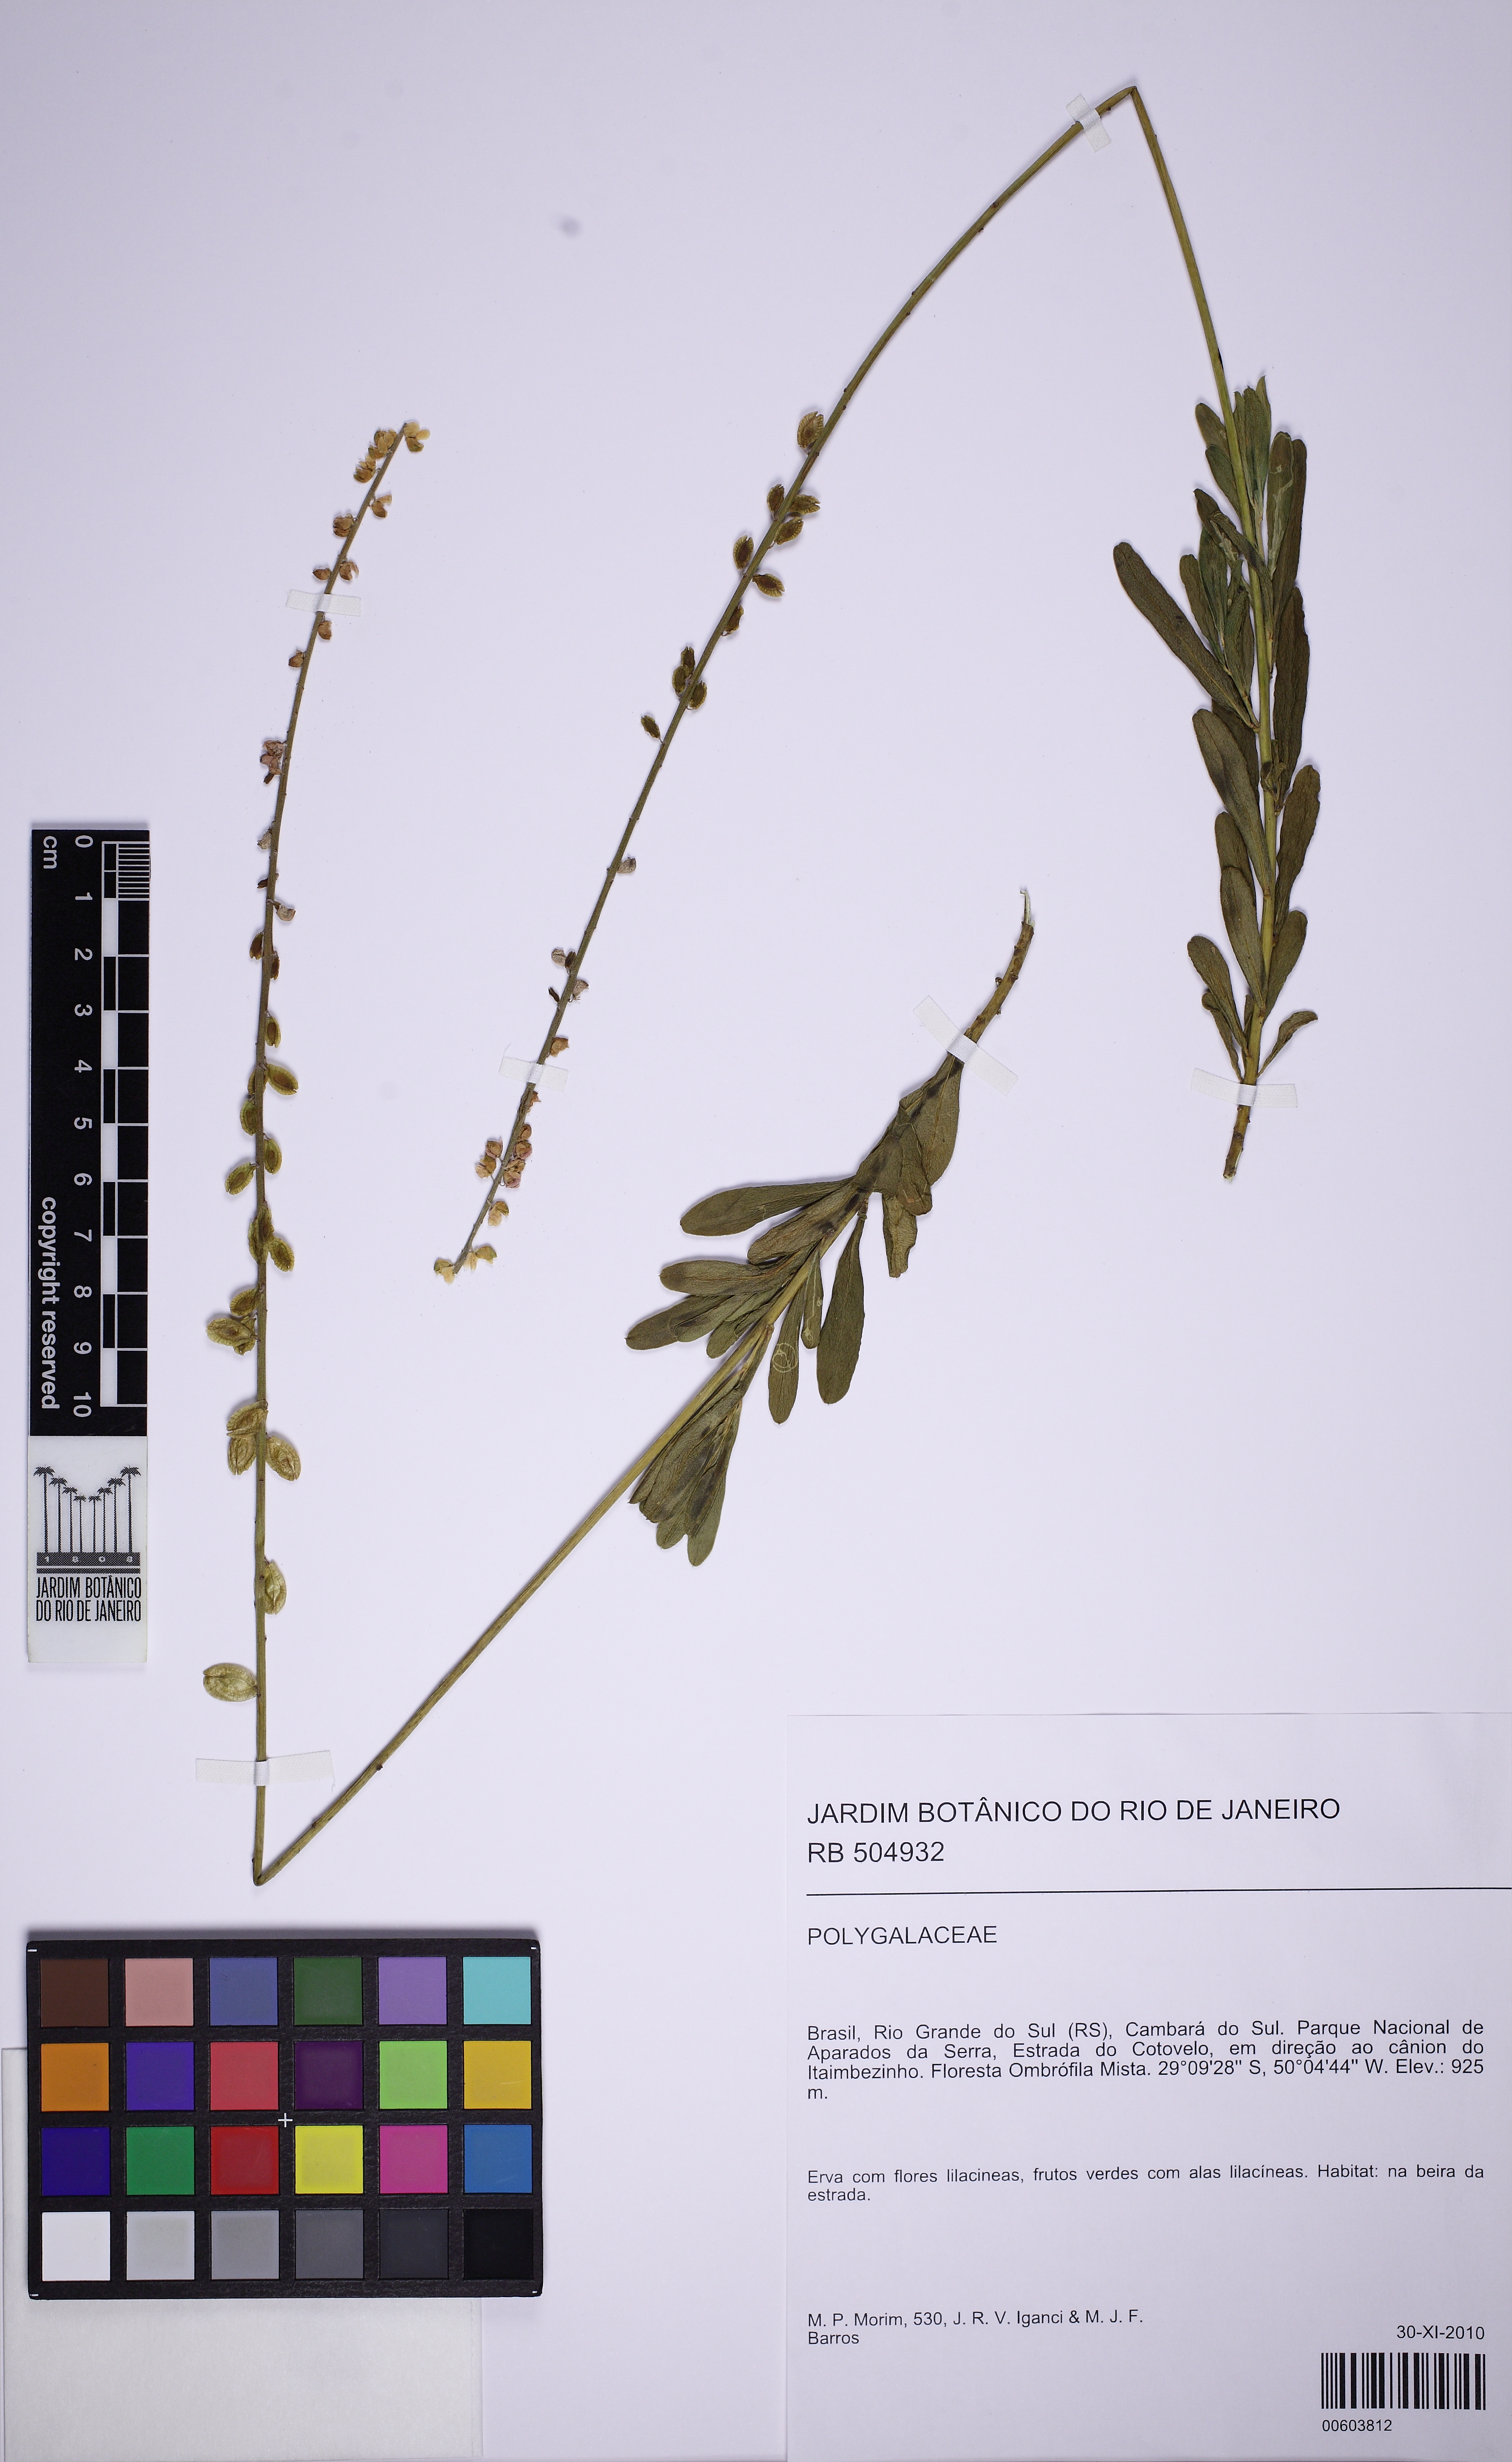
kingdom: Plantae
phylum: Tracheophyta
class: Magnoliopsida
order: Fabales
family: Polygalaceae
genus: Monnina
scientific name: Monnina
